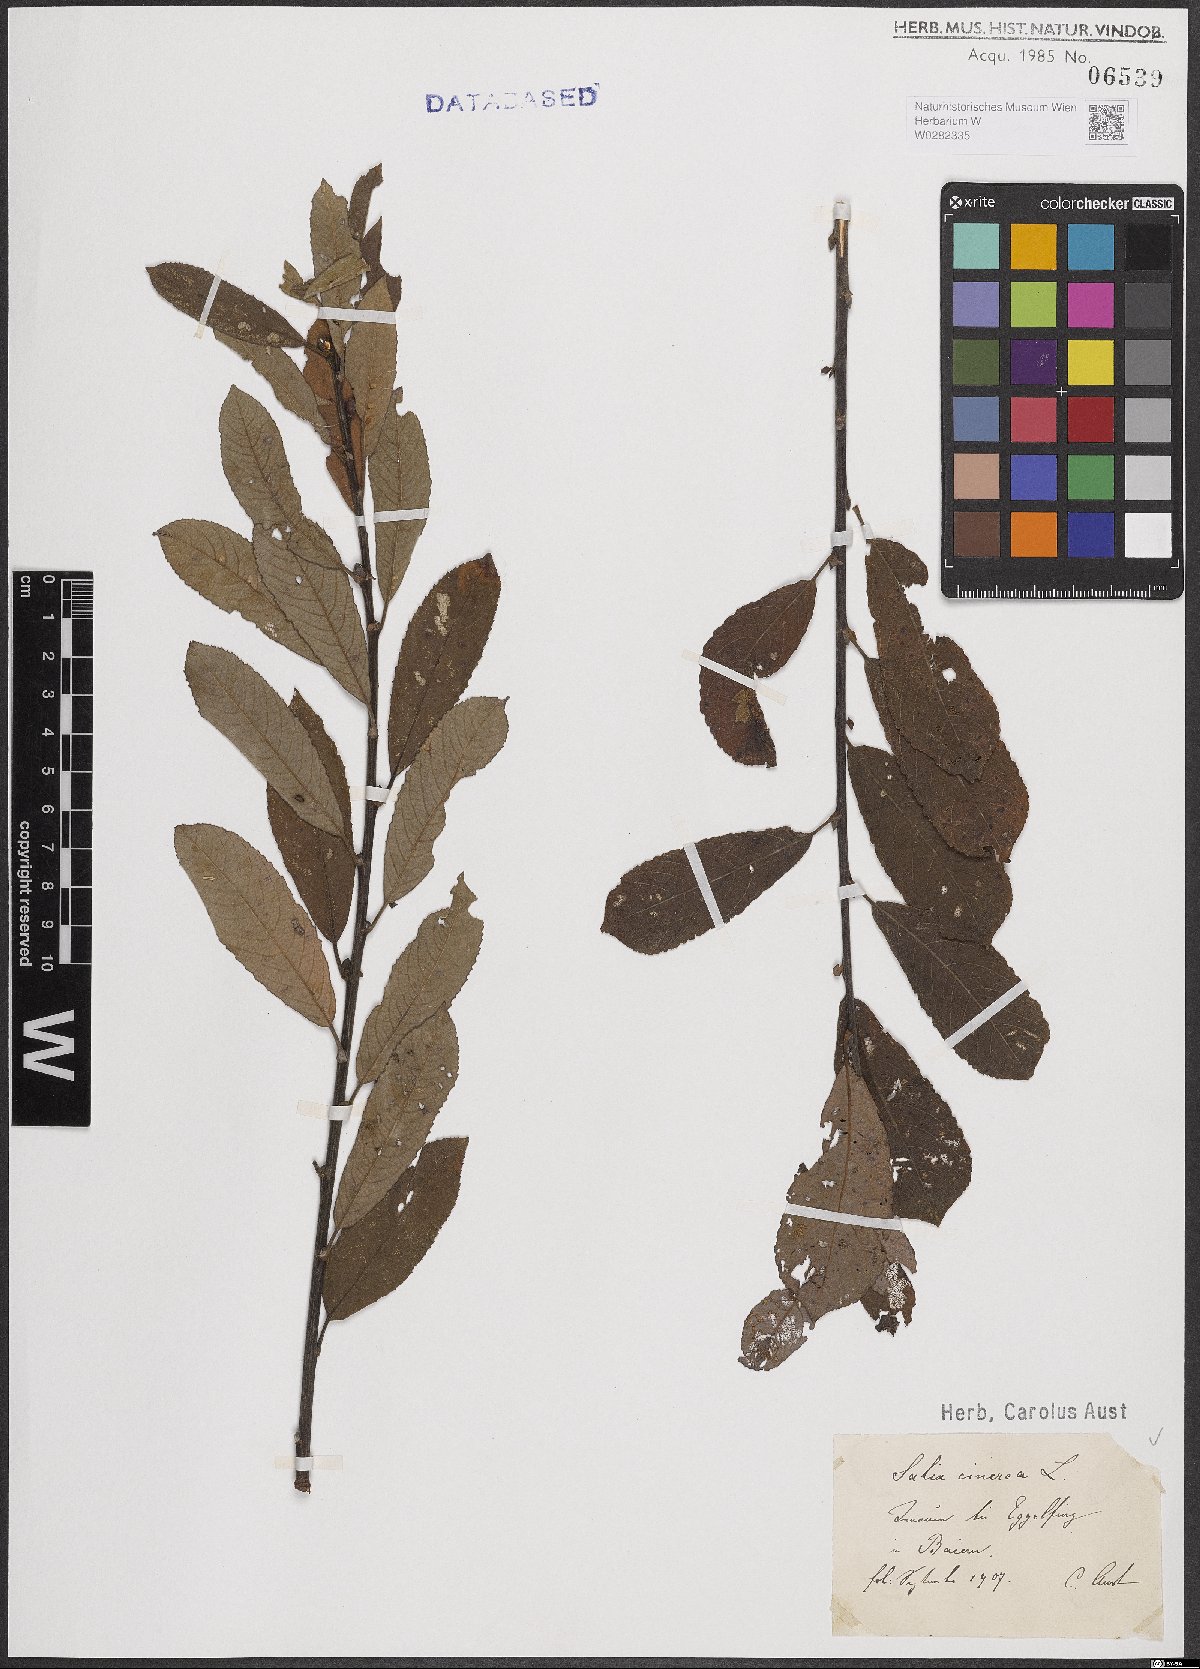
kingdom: Plantae
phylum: Tracheophyta
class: Magnoliopsida
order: Malpighiales
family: Salicaceae
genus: Salix
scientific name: Salix cinerea
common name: Common sallow
